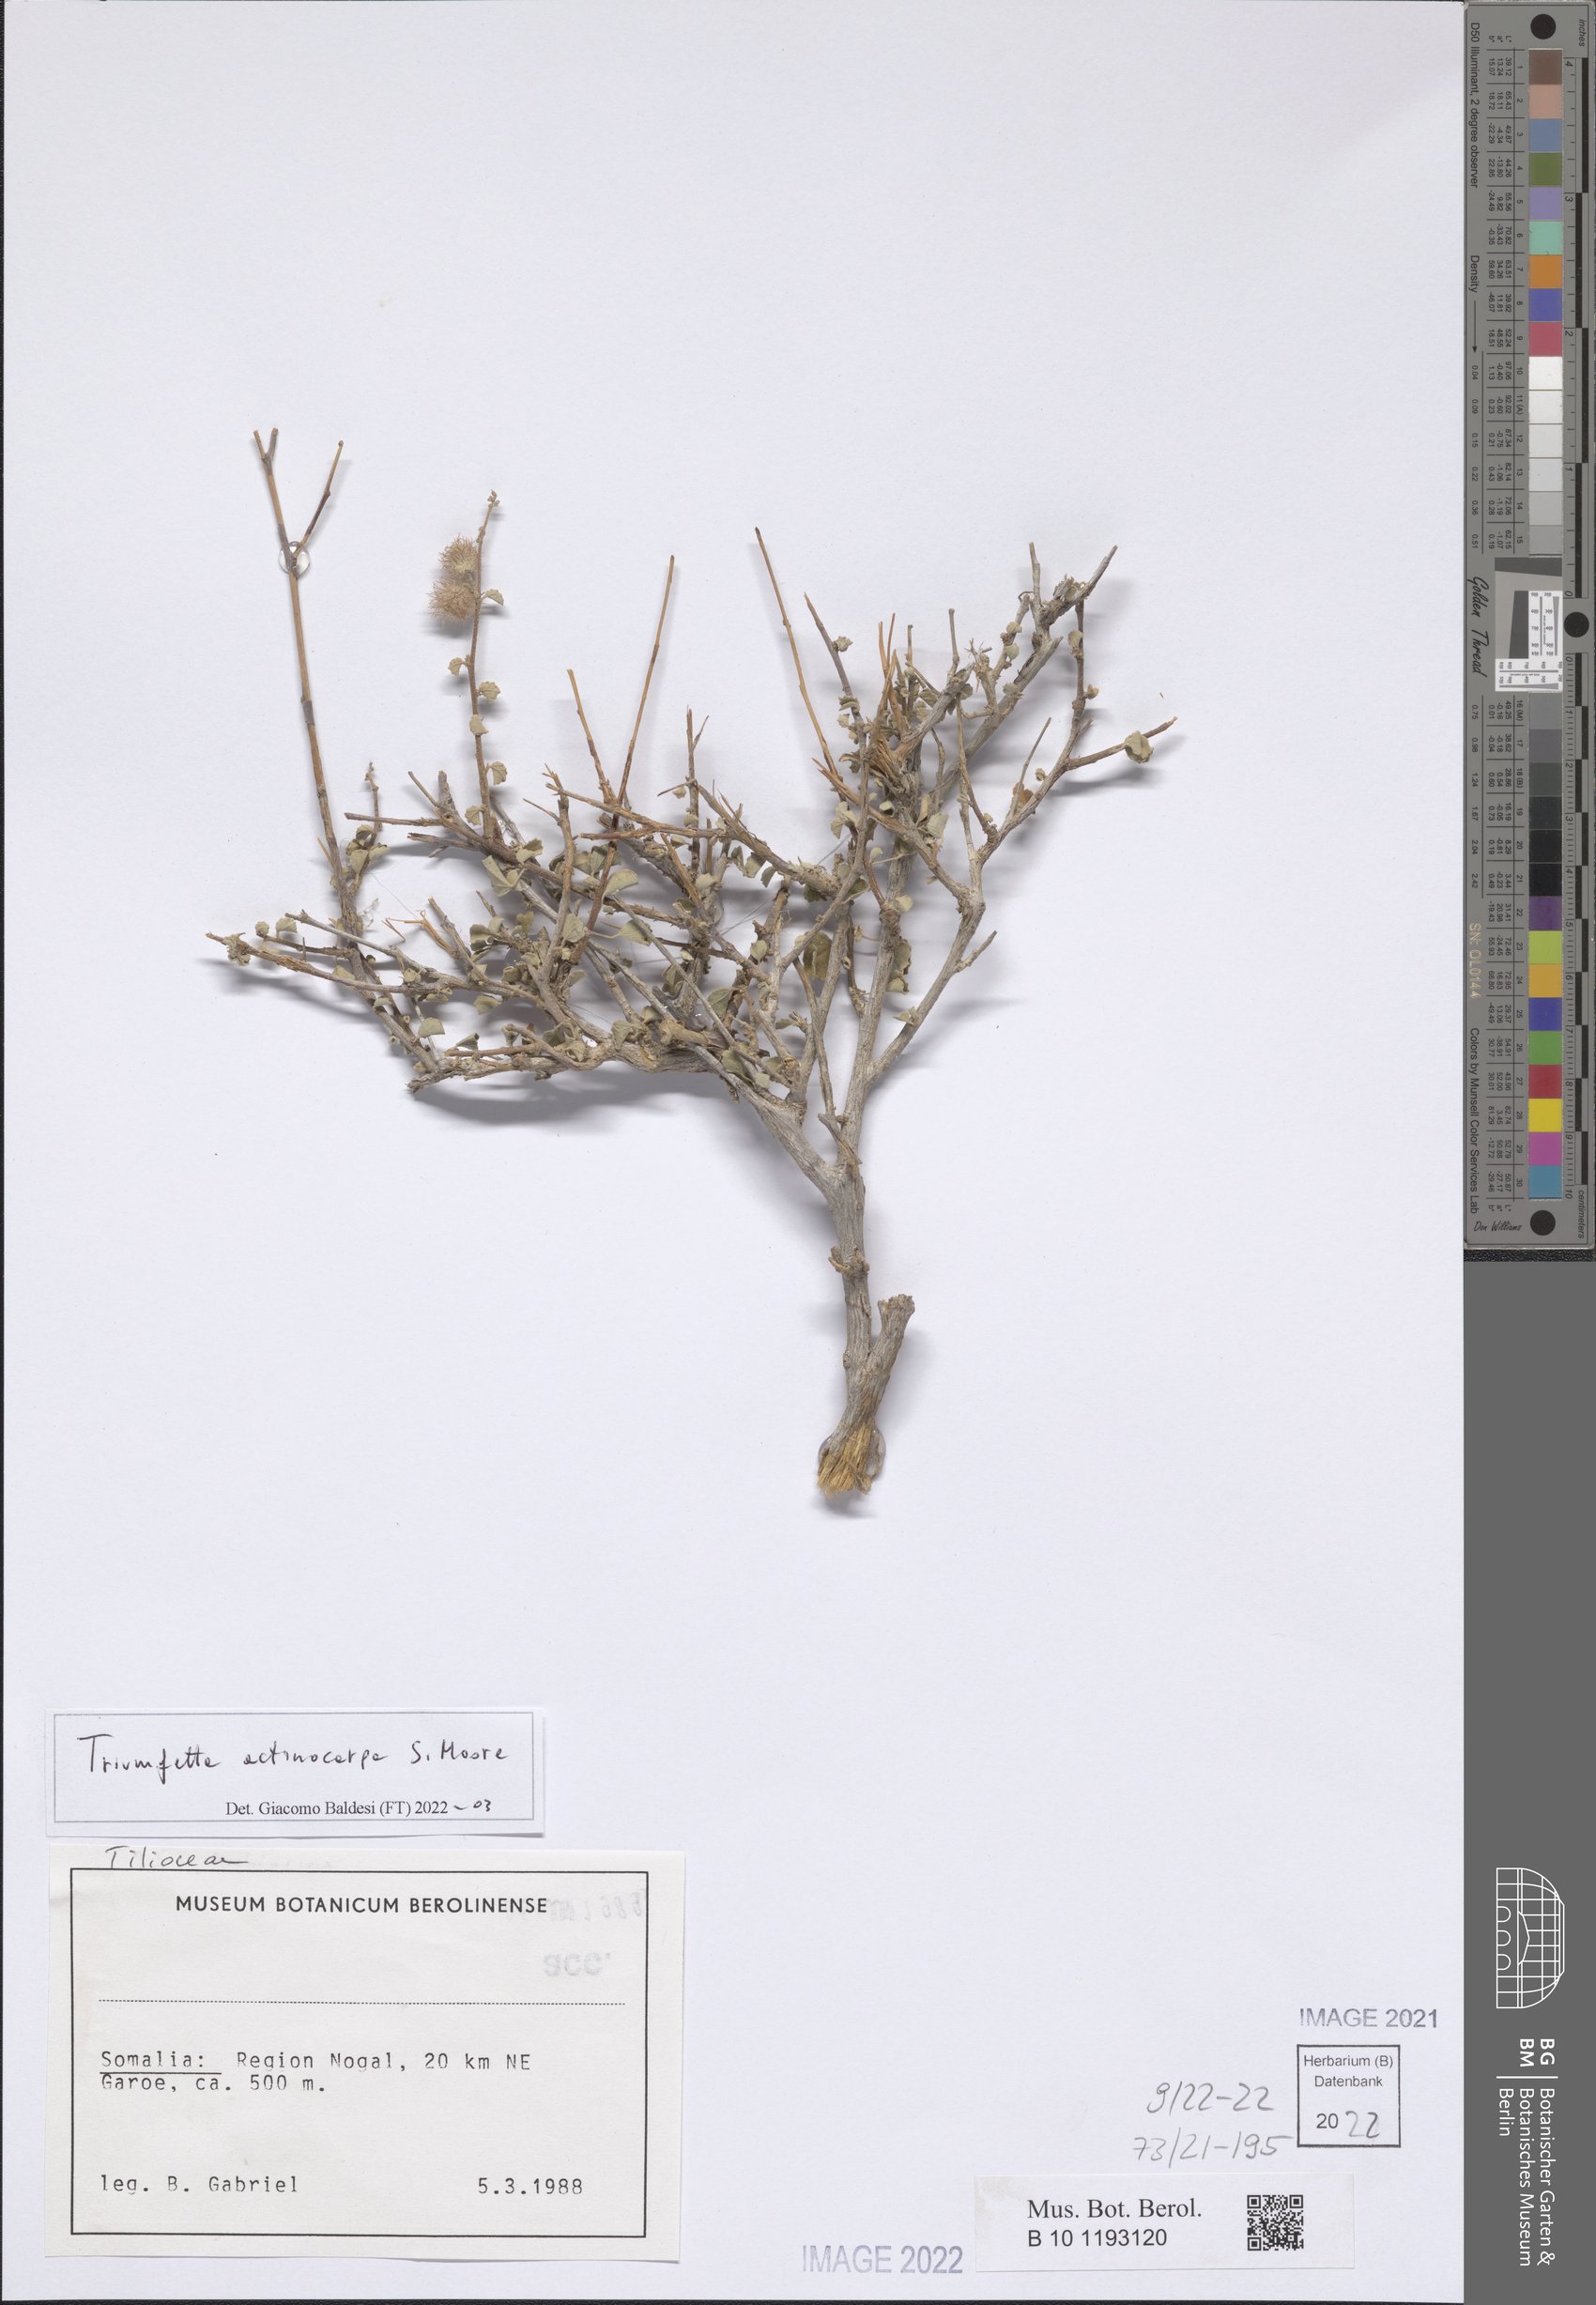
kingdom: Plantae
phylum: Tracheophyta
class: Magnoliopsida
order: Malvales
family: Malvaceae
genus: Triumfetta
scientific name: Triumfetta actinocarpa
